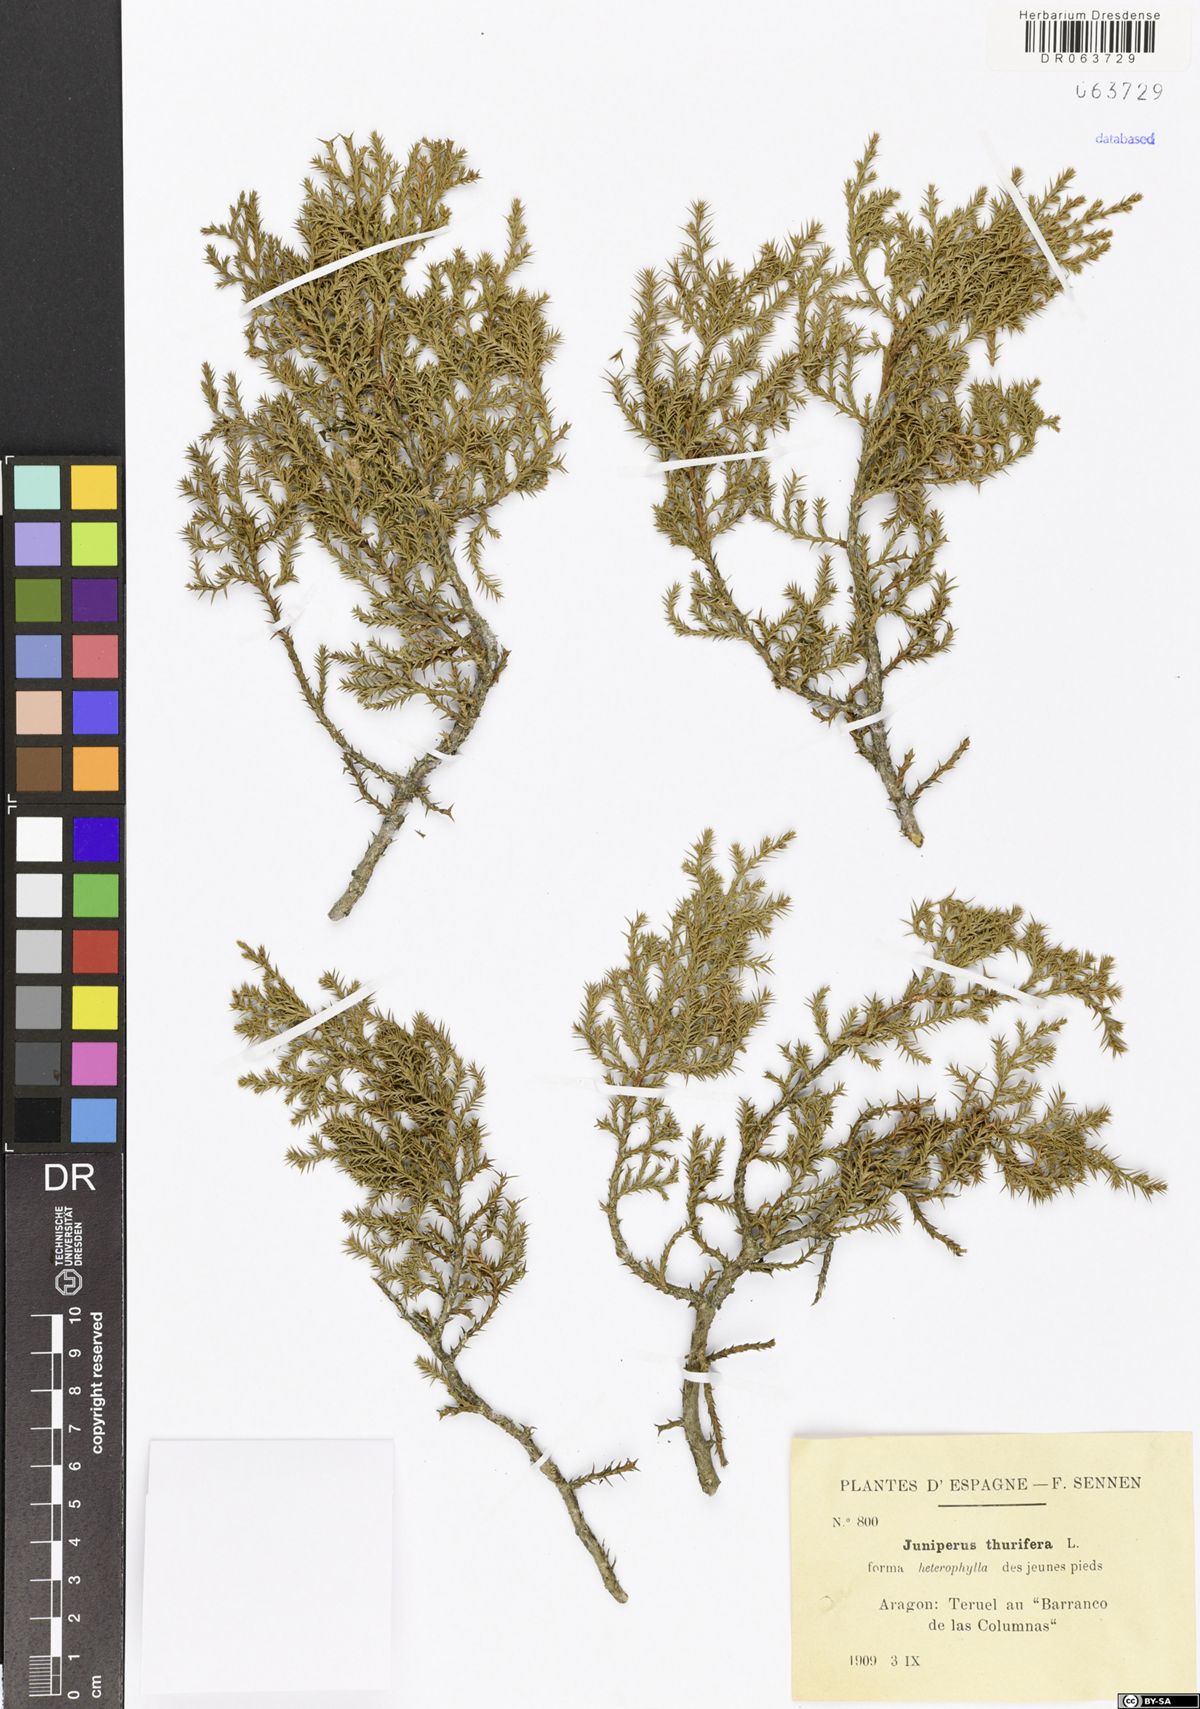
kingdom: Plantae
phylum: Tracheophyta
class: Pinopsida
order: Pinales
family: Cupressaceae
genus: Juniperus
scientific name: Juniperus thurifera
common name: Incense juniper
